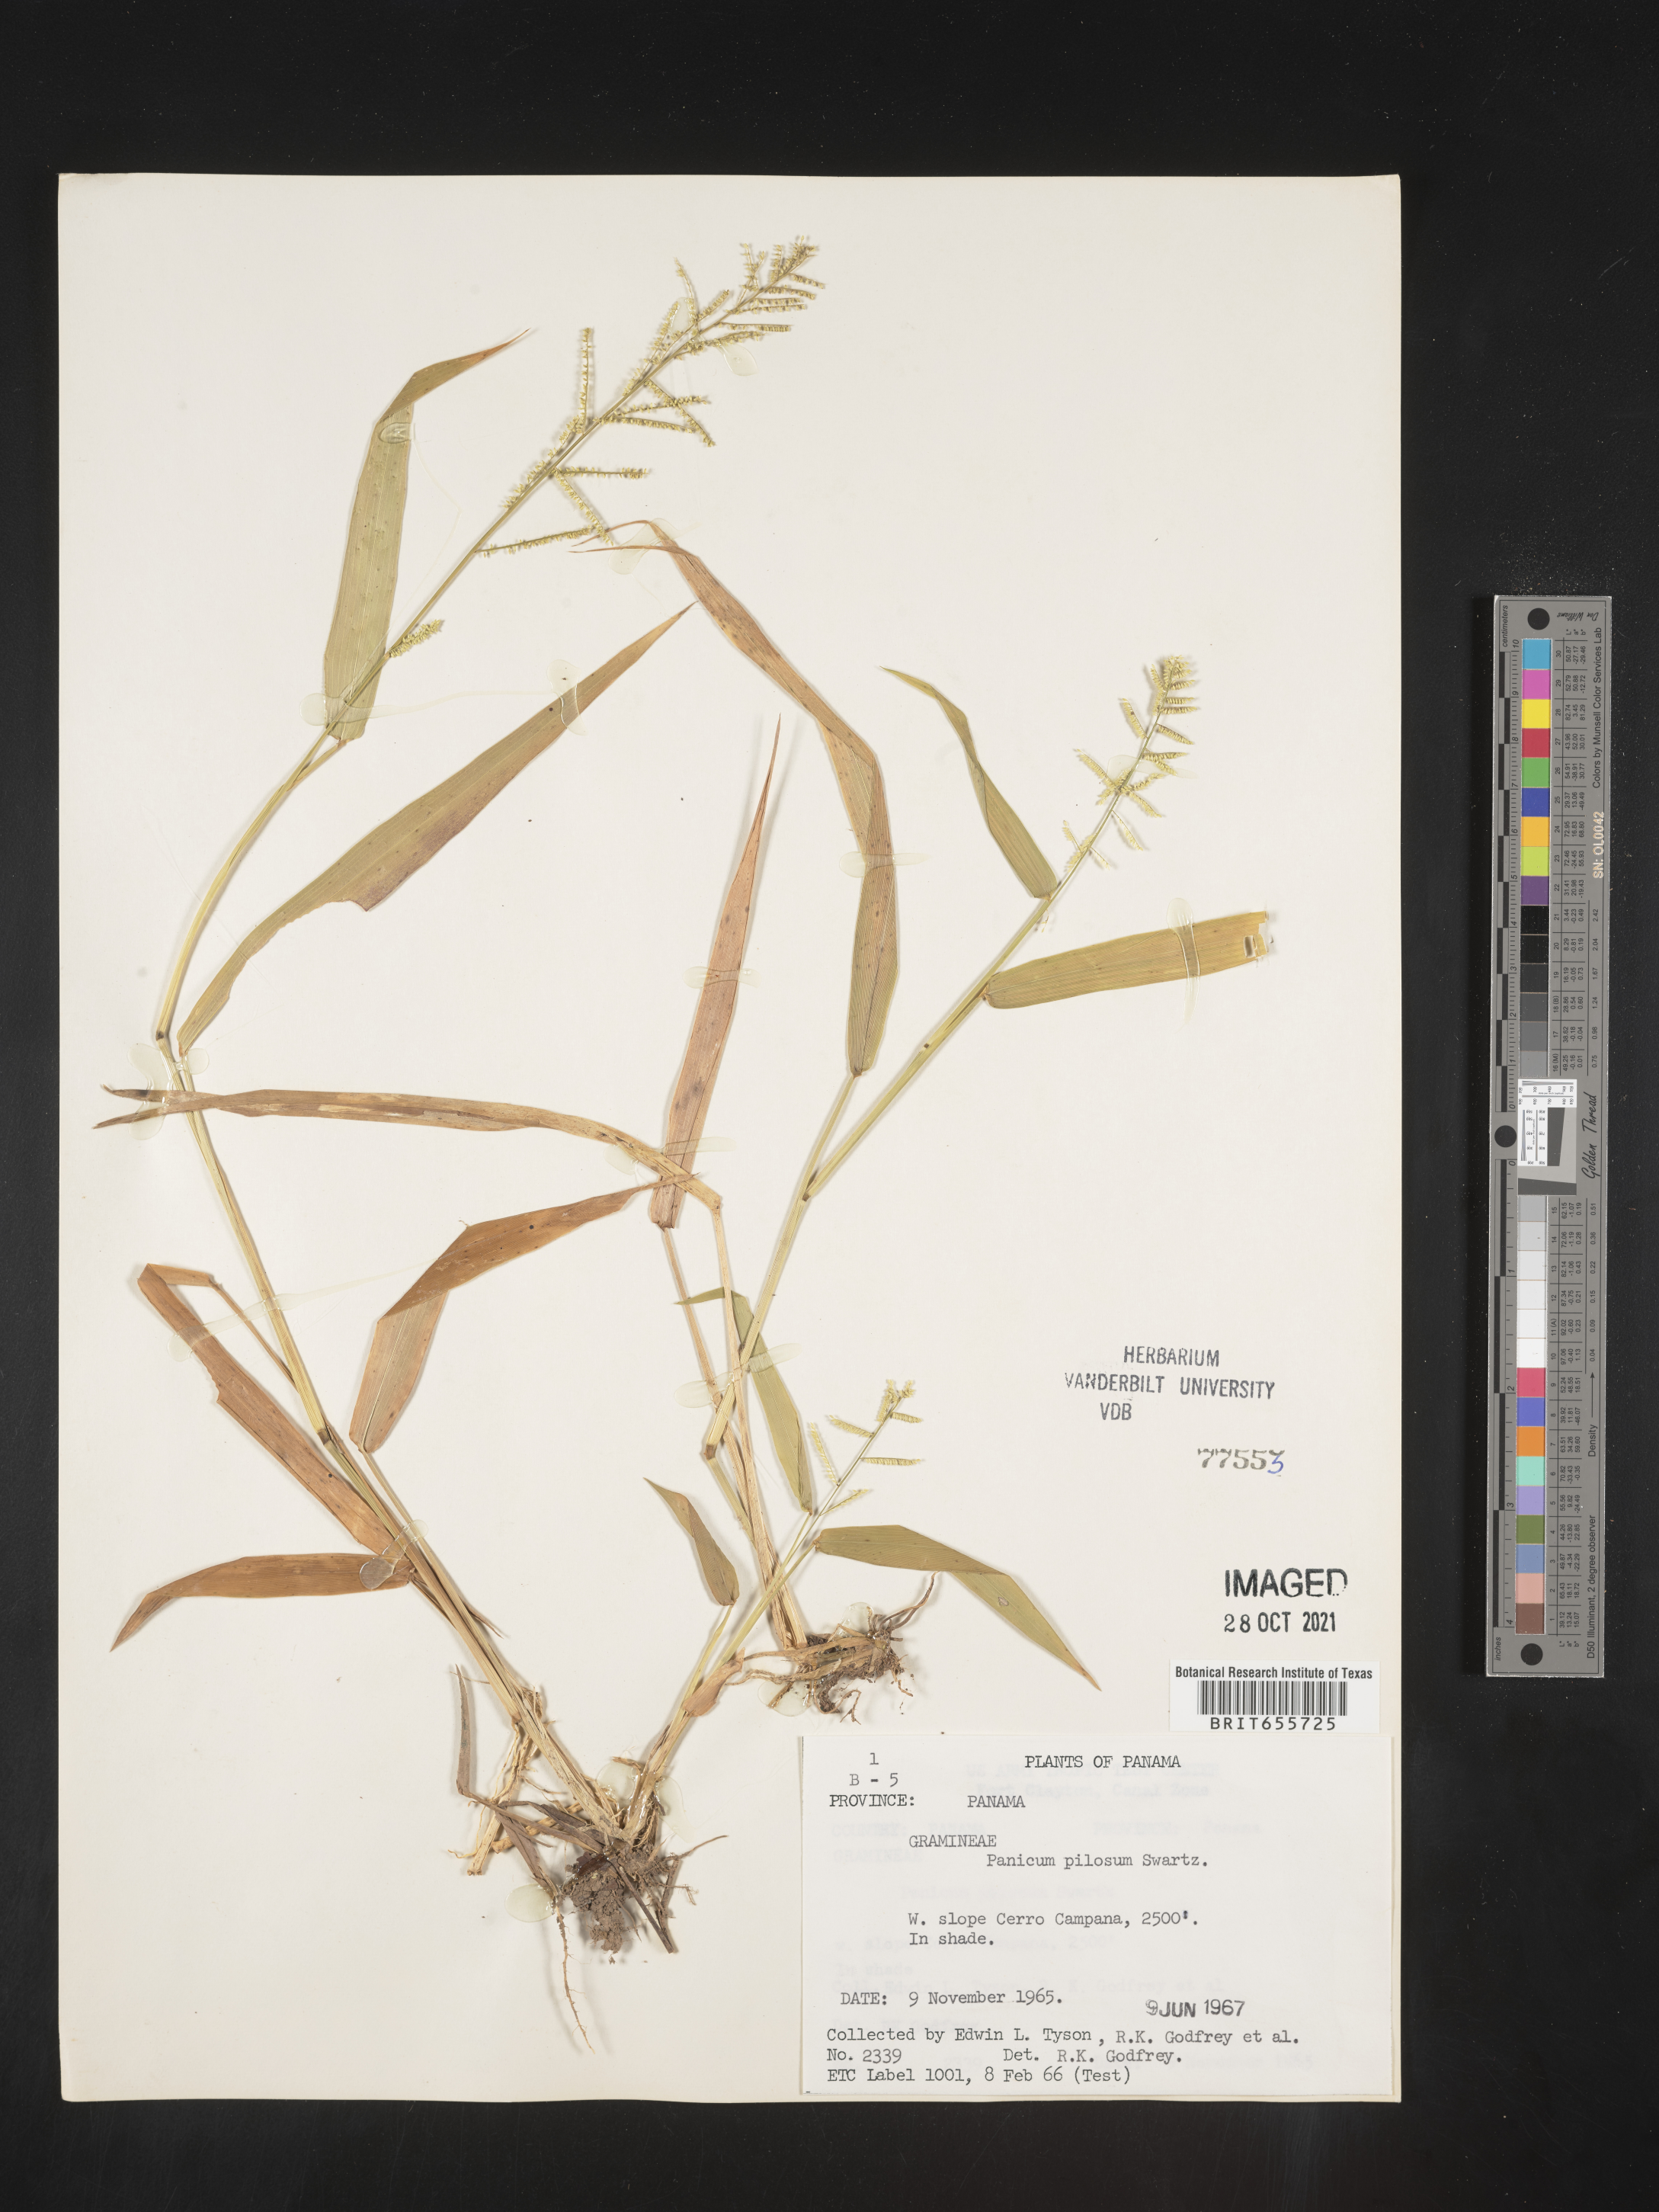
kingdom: Plantae
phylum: Tracheophyta
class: Liliopsida
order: Poales
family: Poaceae
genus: Panicum
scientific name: Panicum
